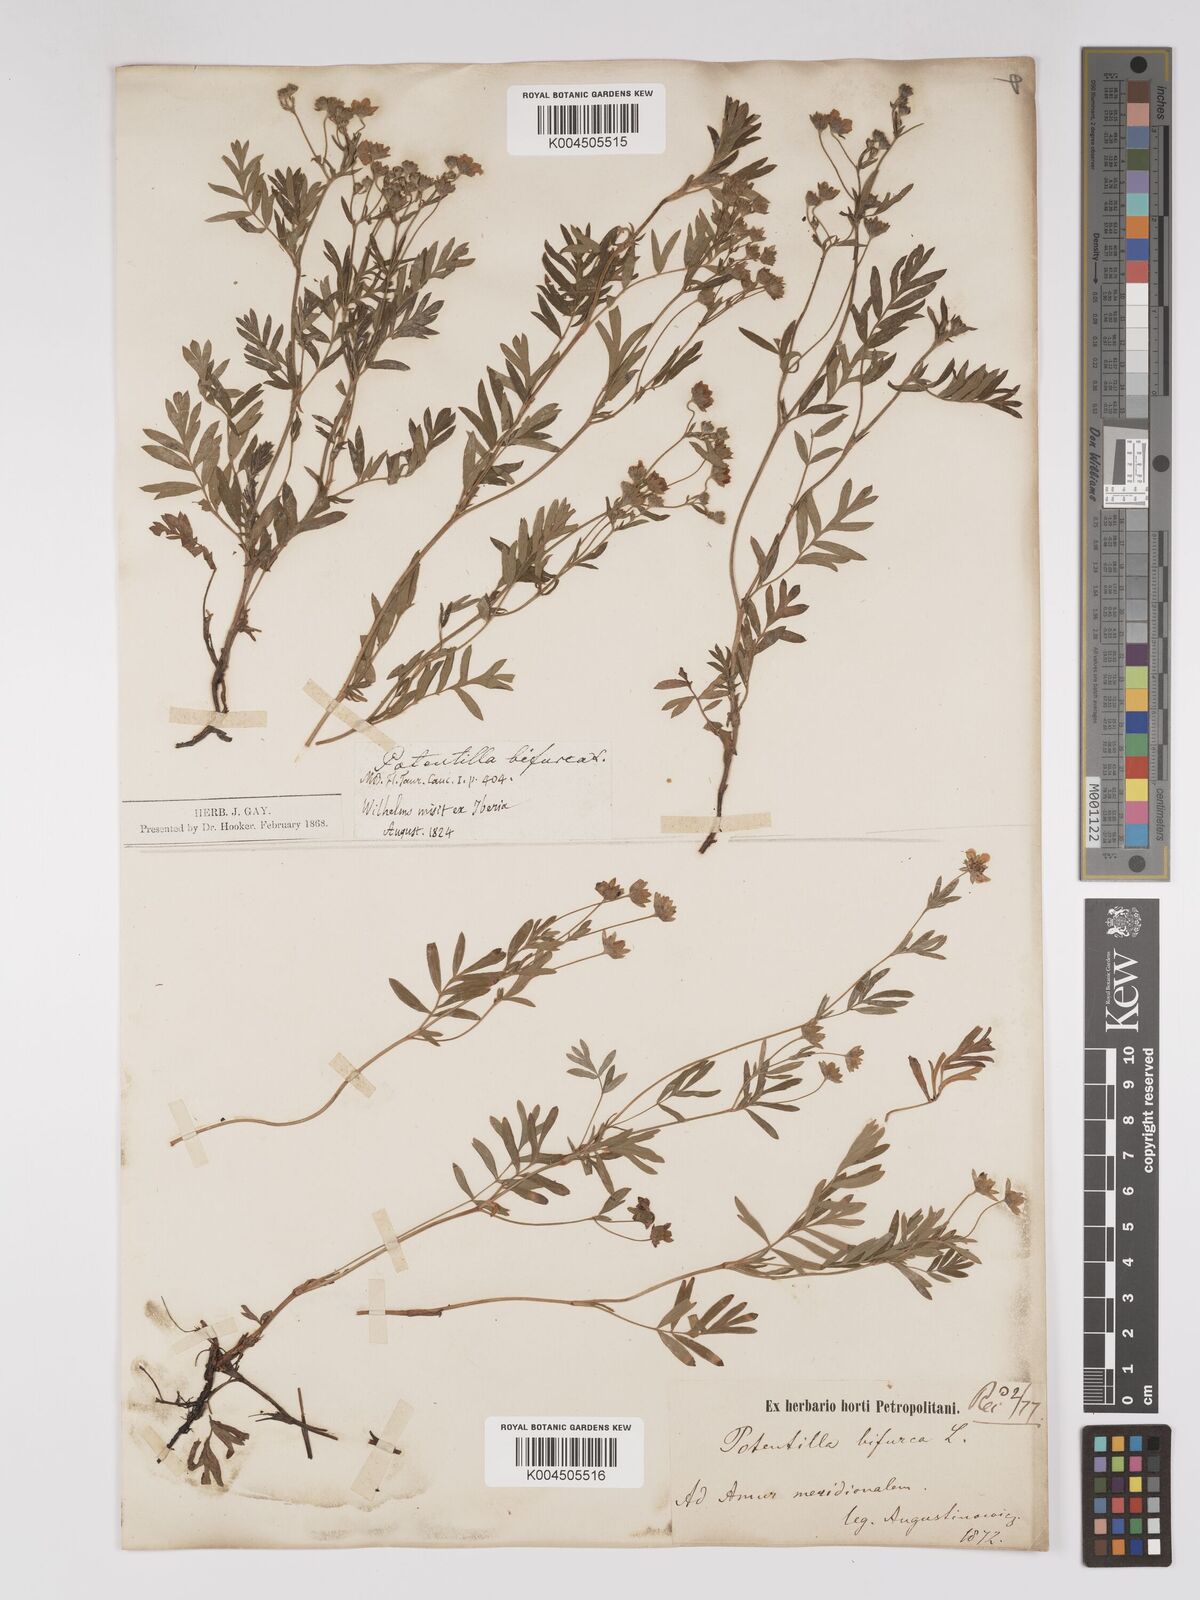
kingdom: Plantae
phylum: Tracheophyta
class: Magnoliopsida
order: Rosales
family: Rosaceae
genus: Sibbaldianthe
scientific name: Sibbaldianthe bifurca
